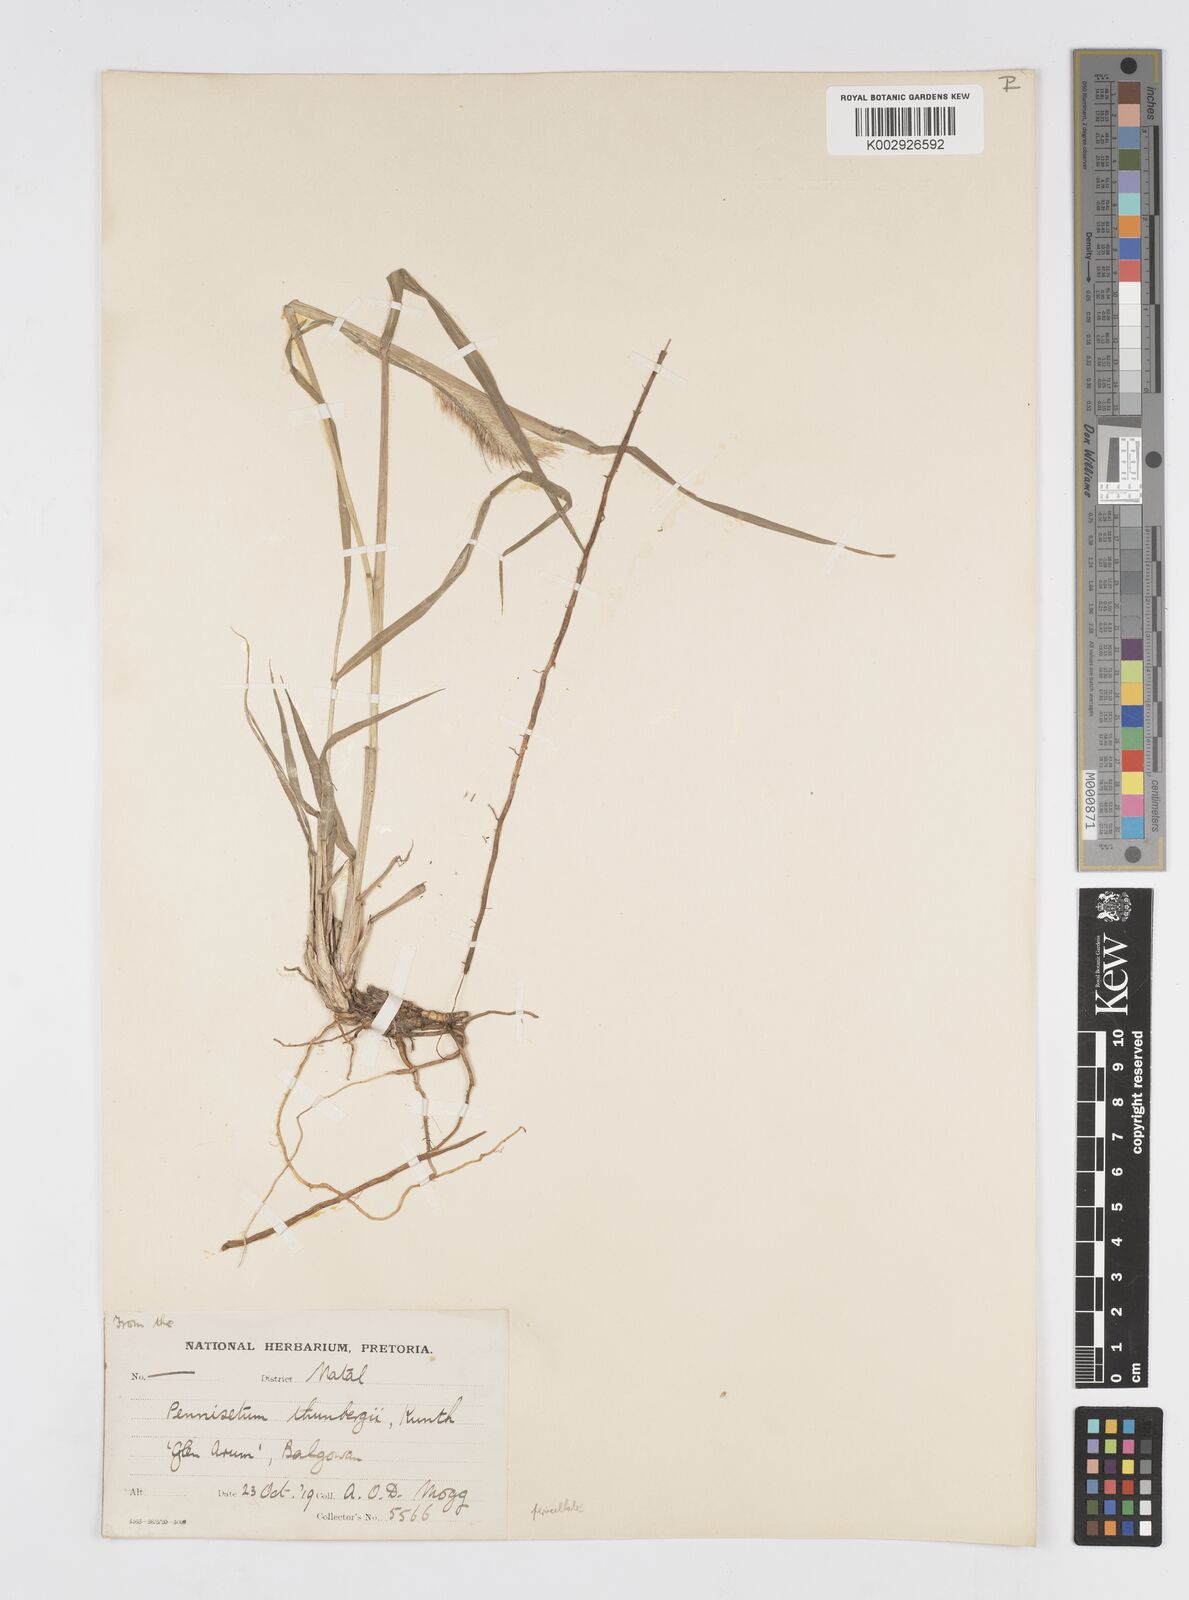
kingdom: Plantae
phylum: Tracheophyta
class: Liliopsida
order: Poales
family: Poaceae
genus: Cenchrus
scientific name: Cenchrus geniculatus
